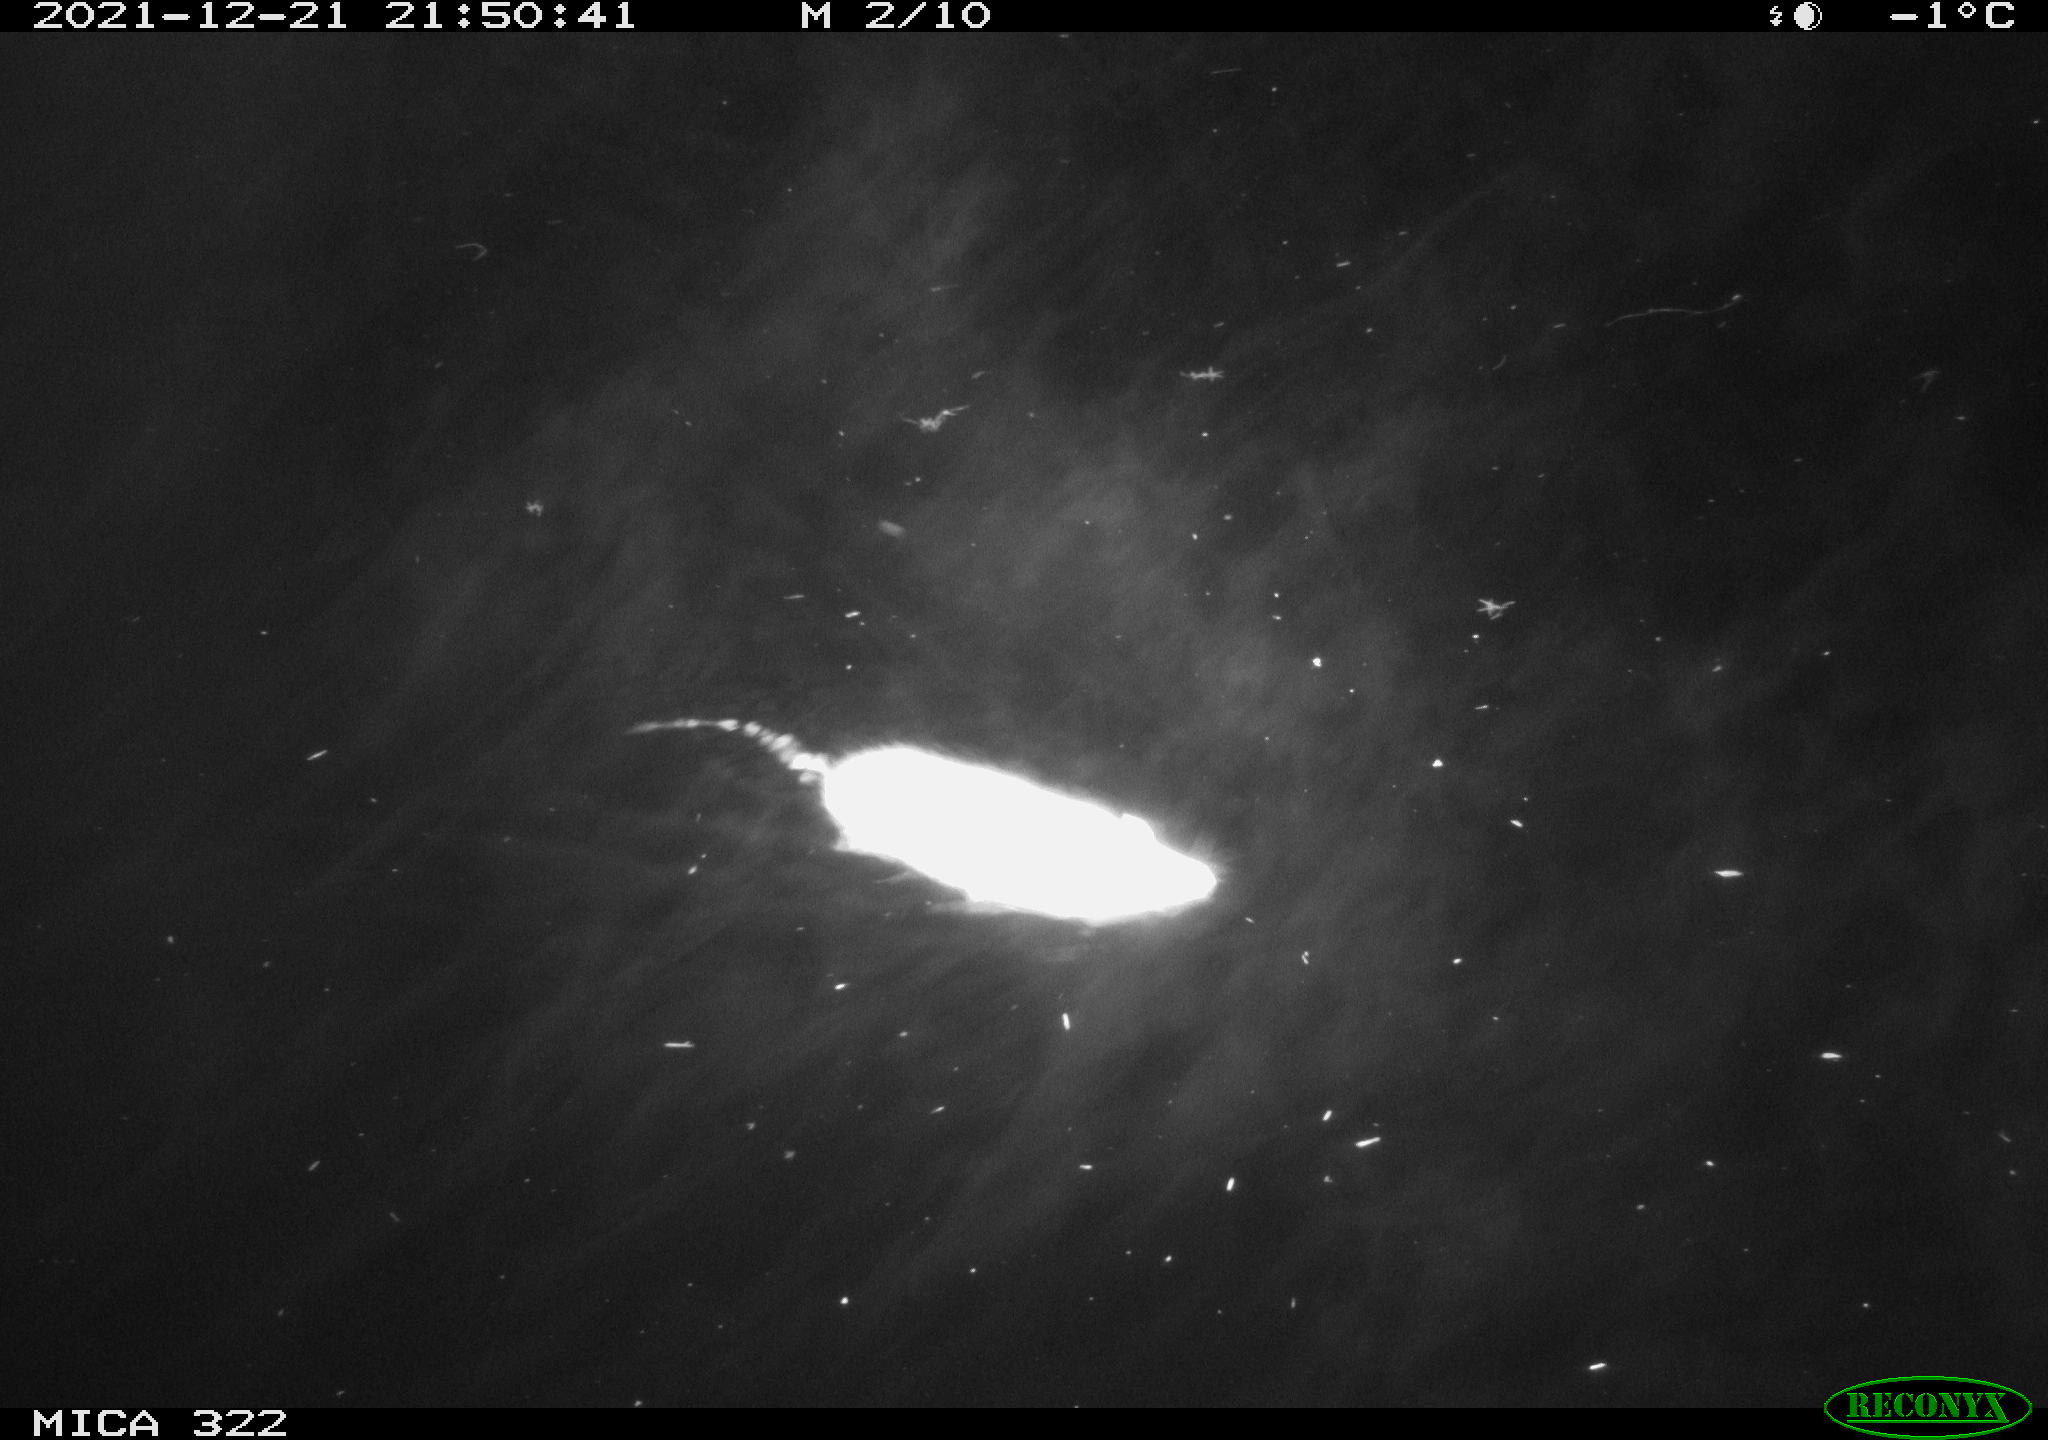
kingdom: Animalia
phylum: Chordata
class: Mammalia
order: Rodentia
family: Cricetidae
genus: Ondatra
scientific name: Ondatra zibethicus
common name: Muskrat
